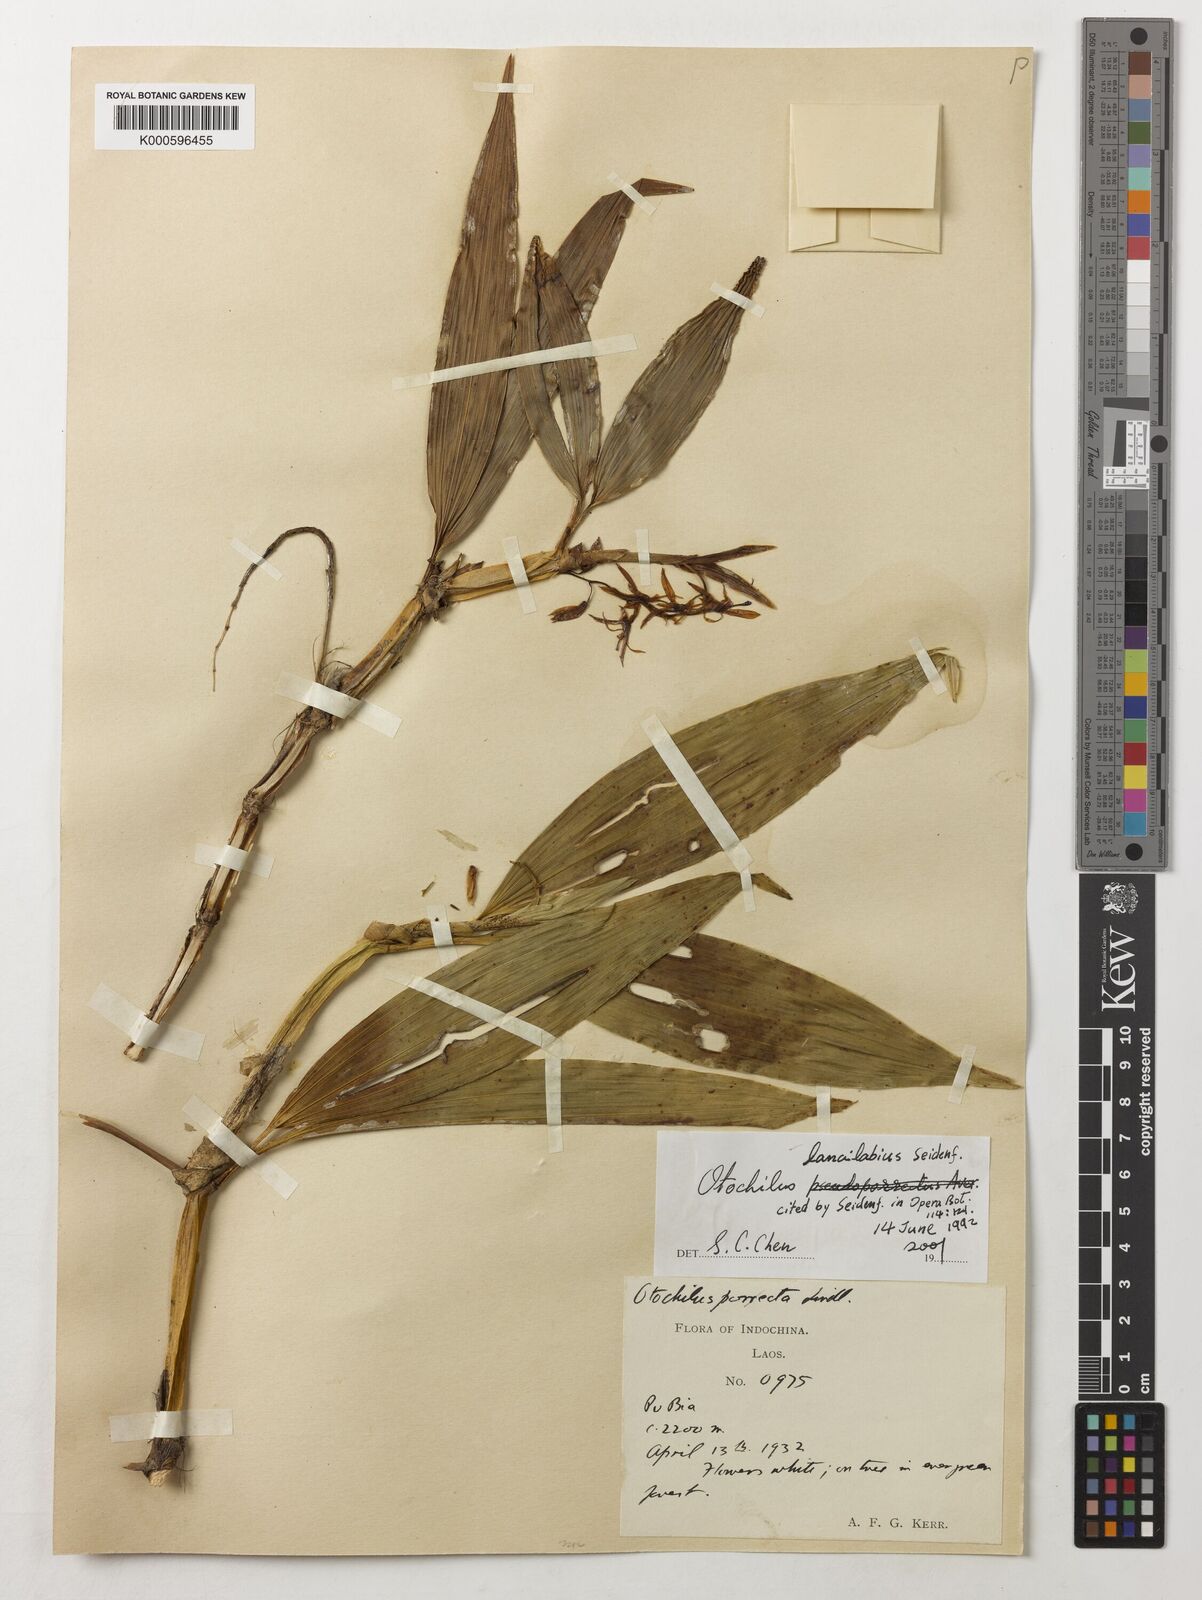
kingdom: Plantae
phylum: Tracheophyta
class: Liliopsida
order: Asparagales
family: Orchidaceae
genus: Coelogyne
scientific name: Coelogyne
